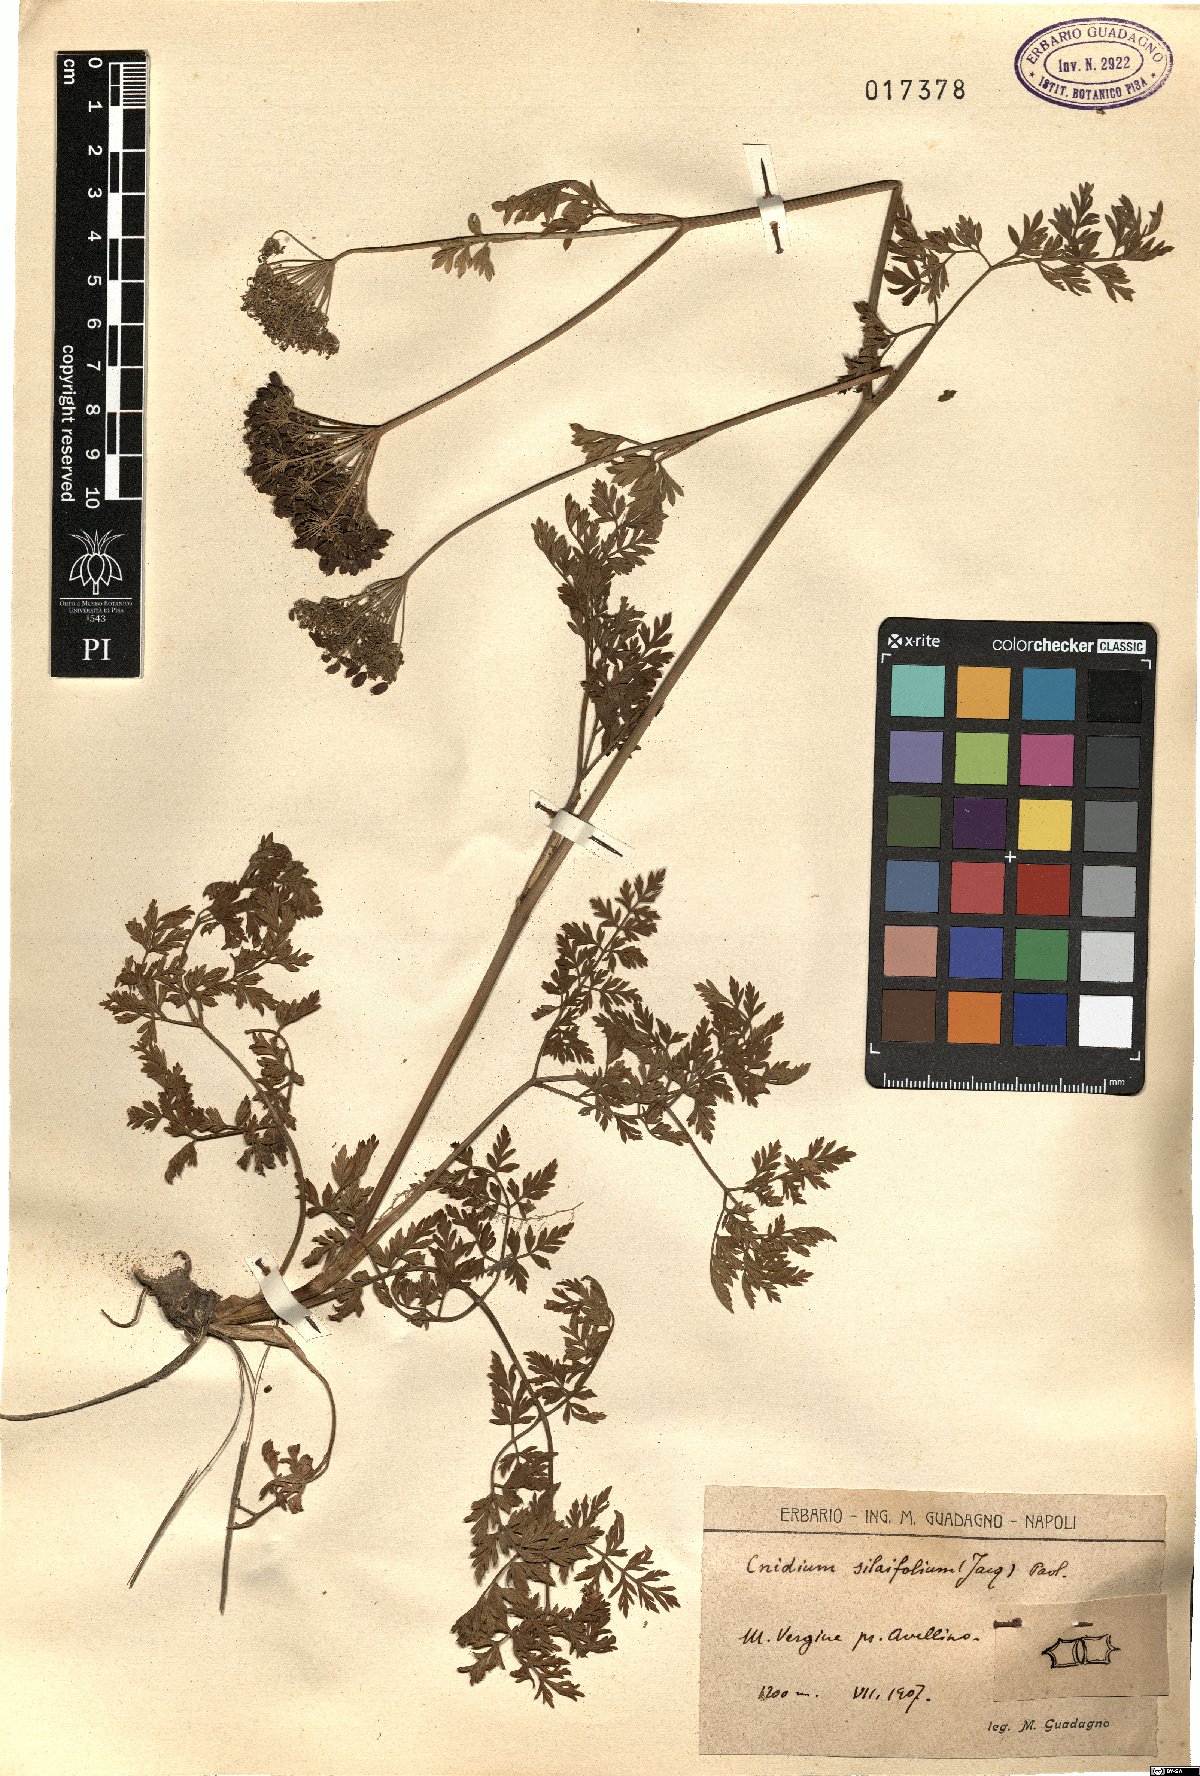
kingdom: Plantae
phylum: Tracheophyta
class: Magnoliopsida
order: Apiales
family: Apiaceae
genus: Katapsuxis
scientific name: Katapsuxis silaifolia
